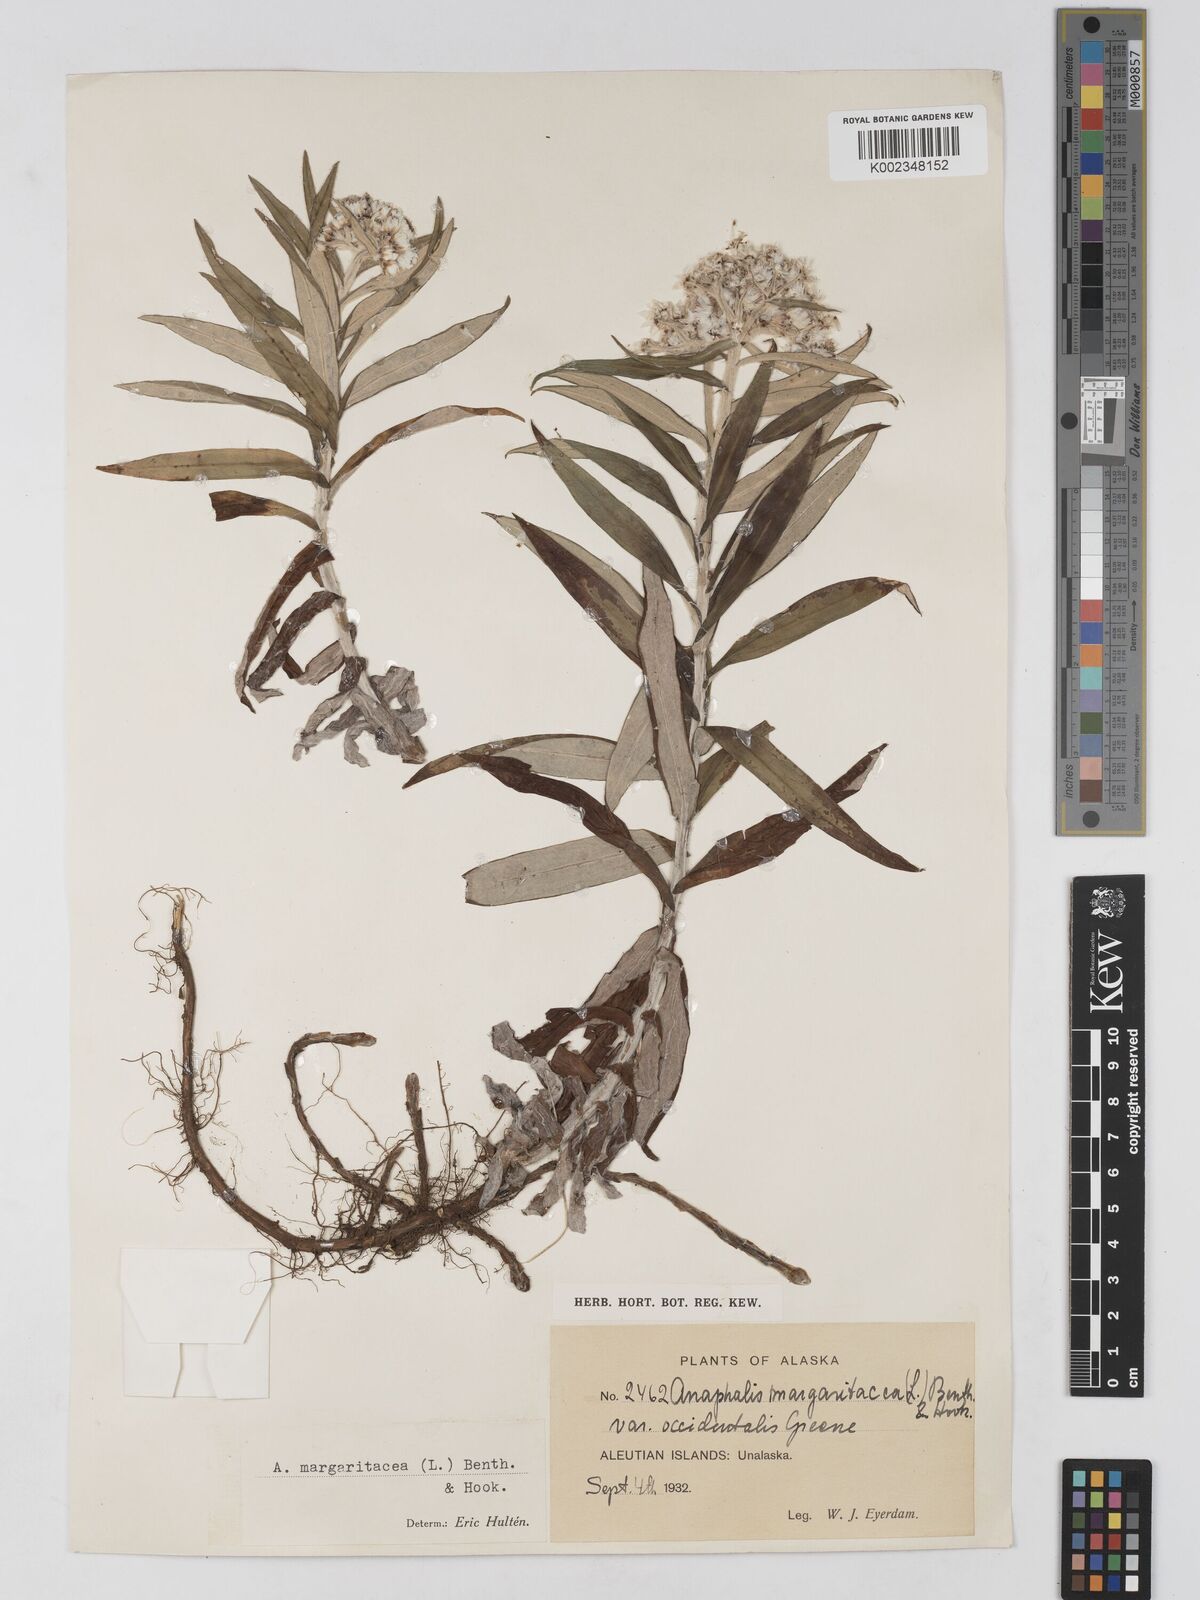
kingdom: Plantae
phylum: Tracheophyta
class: Magnoliopsida
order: Asterales
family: Asteraceae
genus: Anaphalis
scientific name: Anaphalis margaritacea
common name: Pearly everlasting
